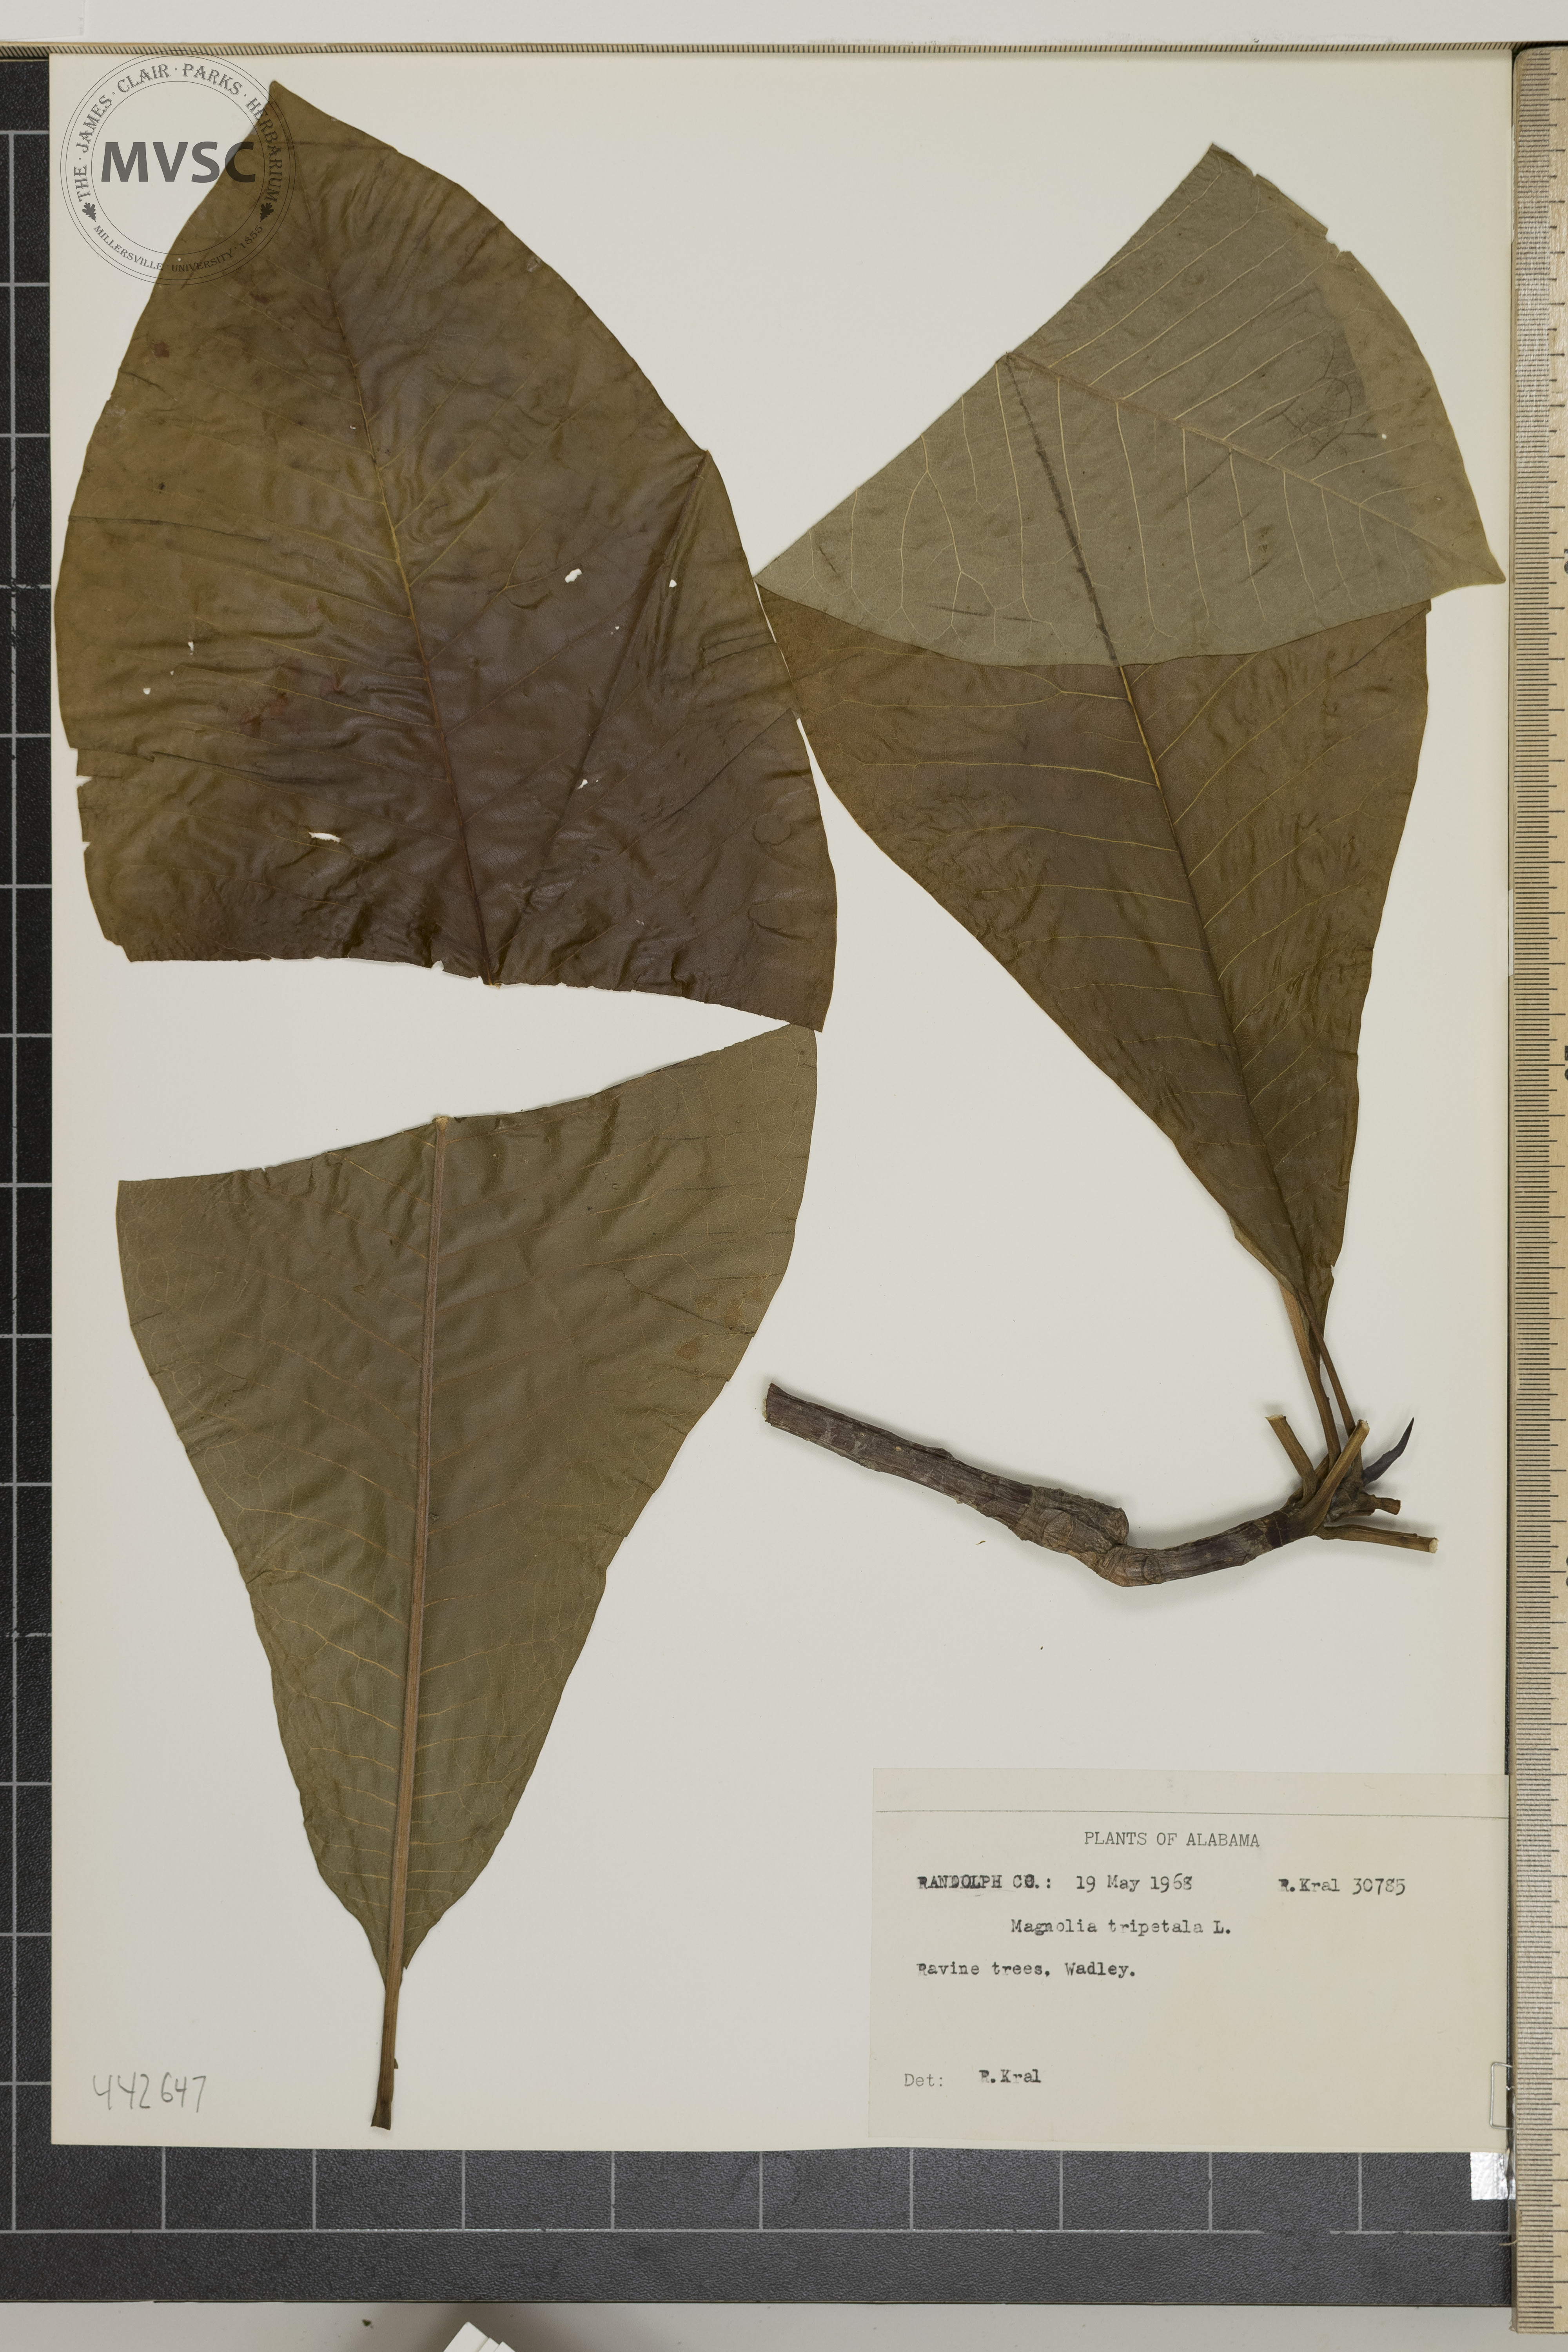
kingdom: Plantae
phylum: Tracheophyta
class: Magnoliopsida
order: Magnoliales
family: Magnoliaceae
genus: Magnolia
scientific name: Magnolia tripetala
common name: Umbrella magnolia
